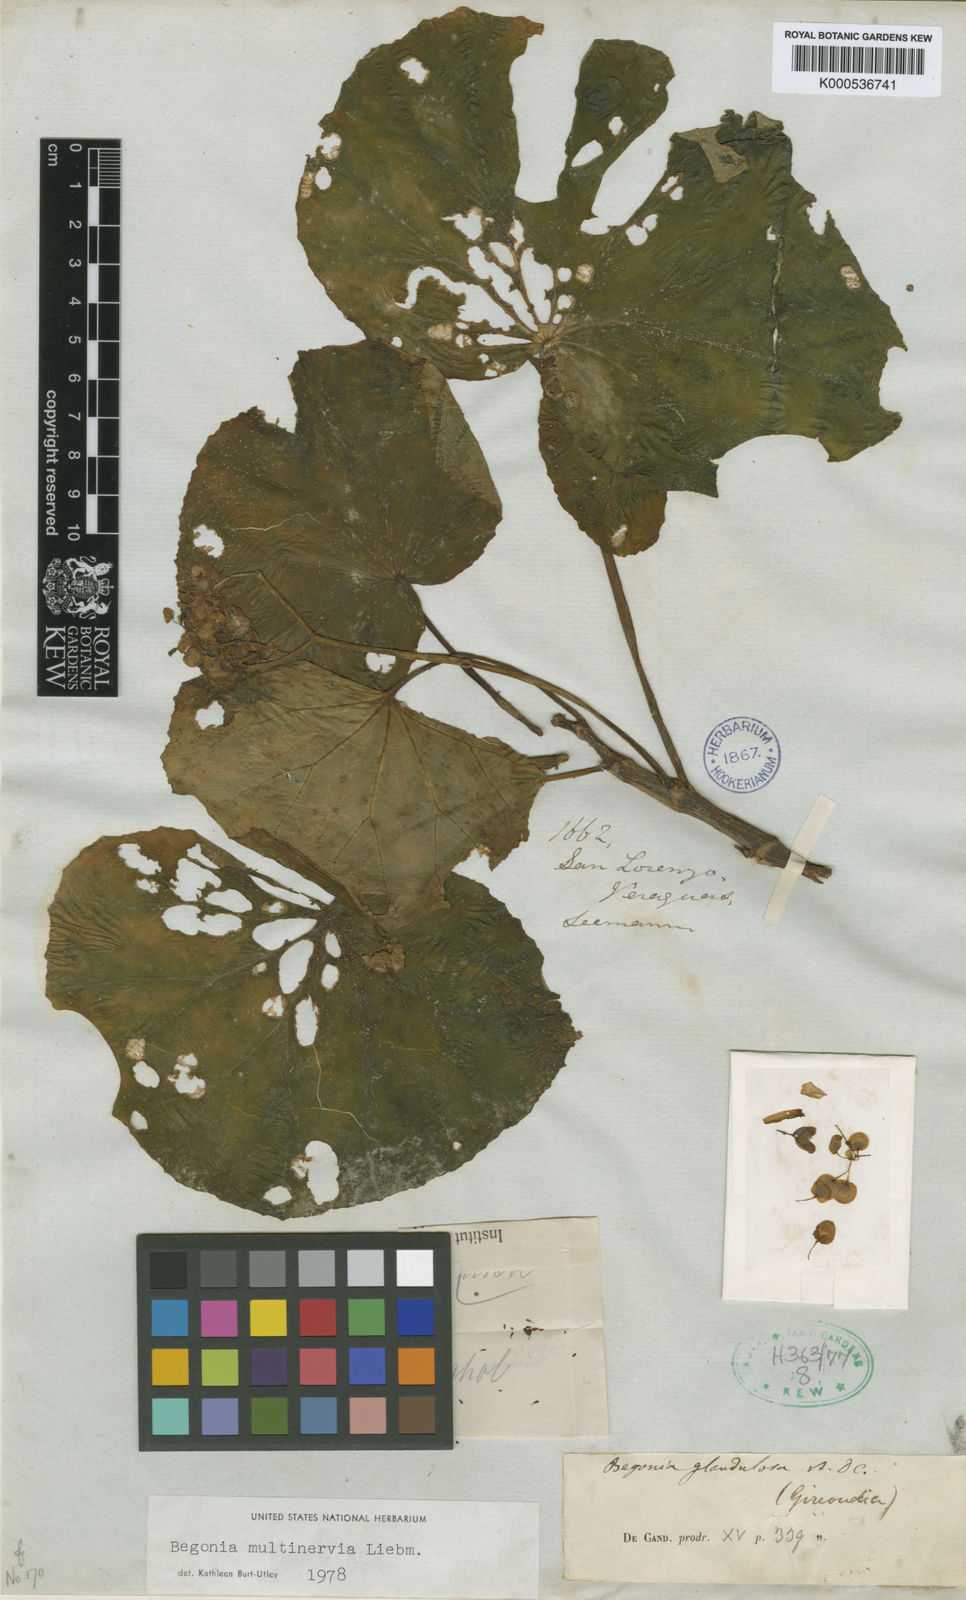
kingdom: Plantae
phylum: Tracheophyta
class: Magnoliopsida
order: Cucurbitales
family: Begoniaceae
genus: Begonia
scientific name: Begonia glandulosa
